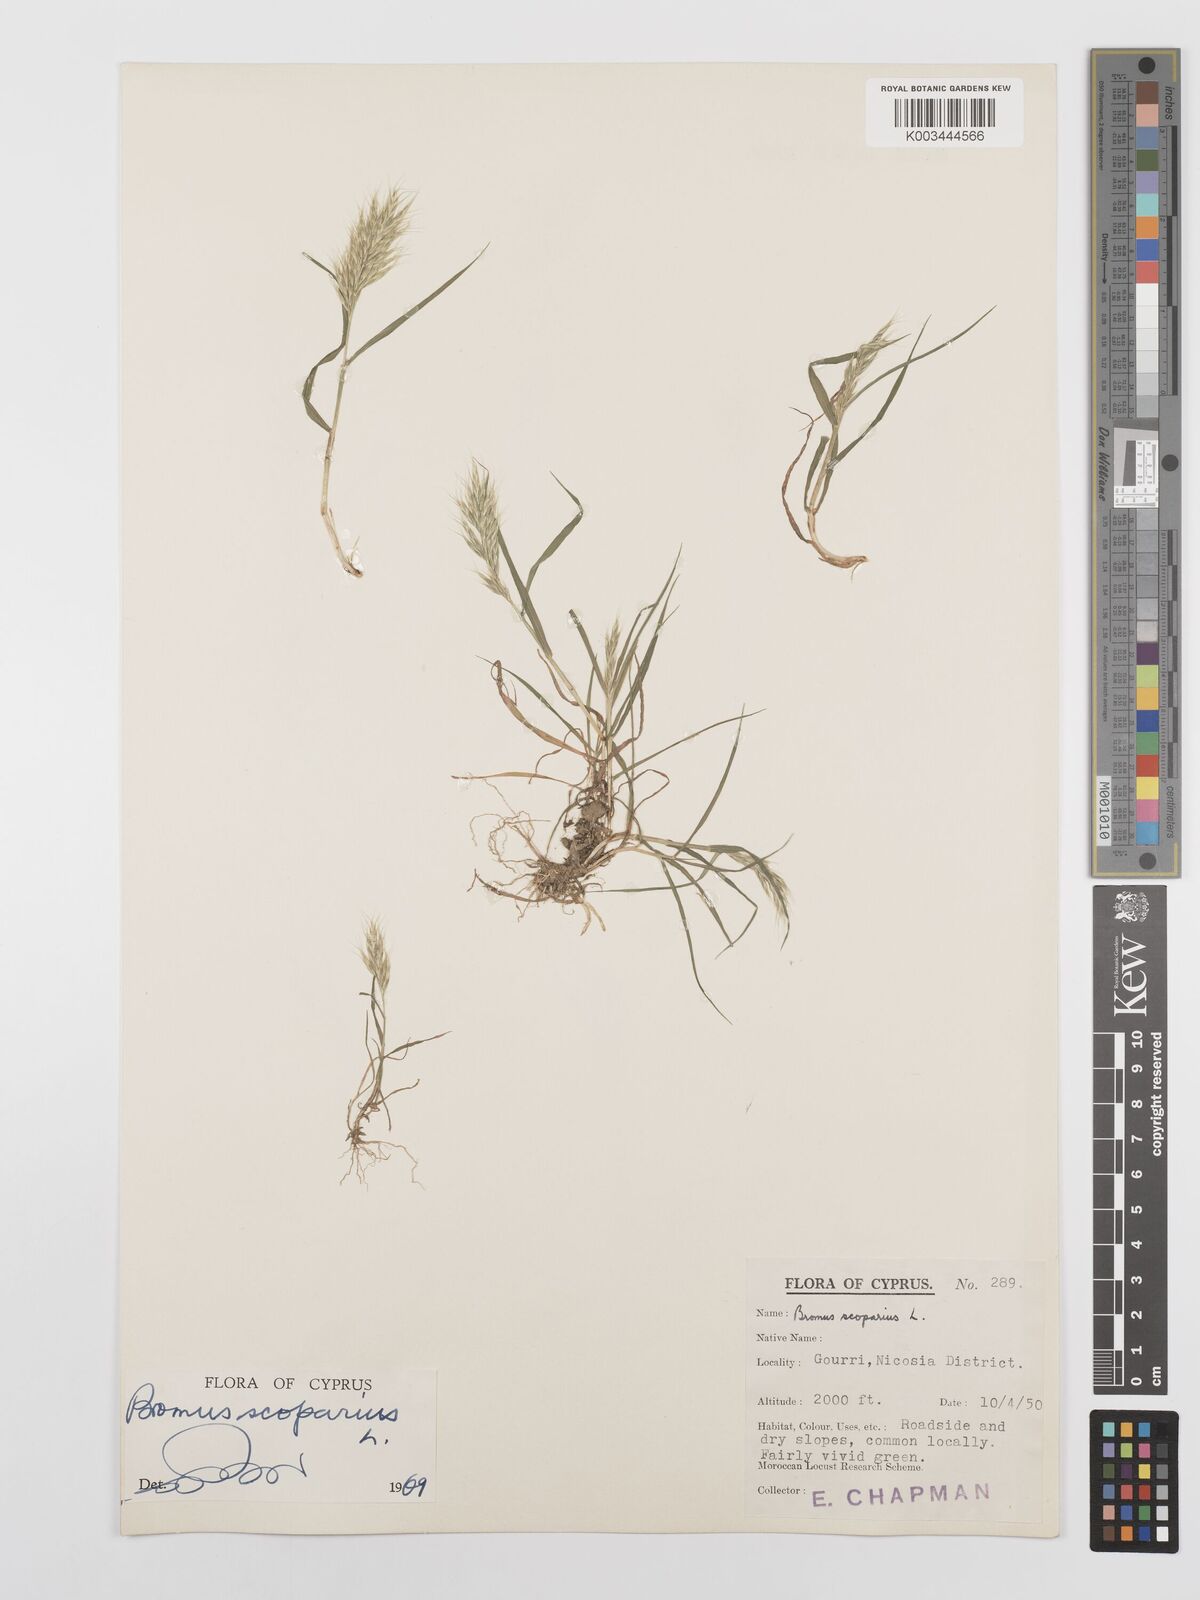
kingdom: Plantae
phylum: Tracheophyta
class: Liliopsida
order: Poales
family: Poaceae
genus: Bromus
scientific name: Bromus scoparius
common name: Broom brome
